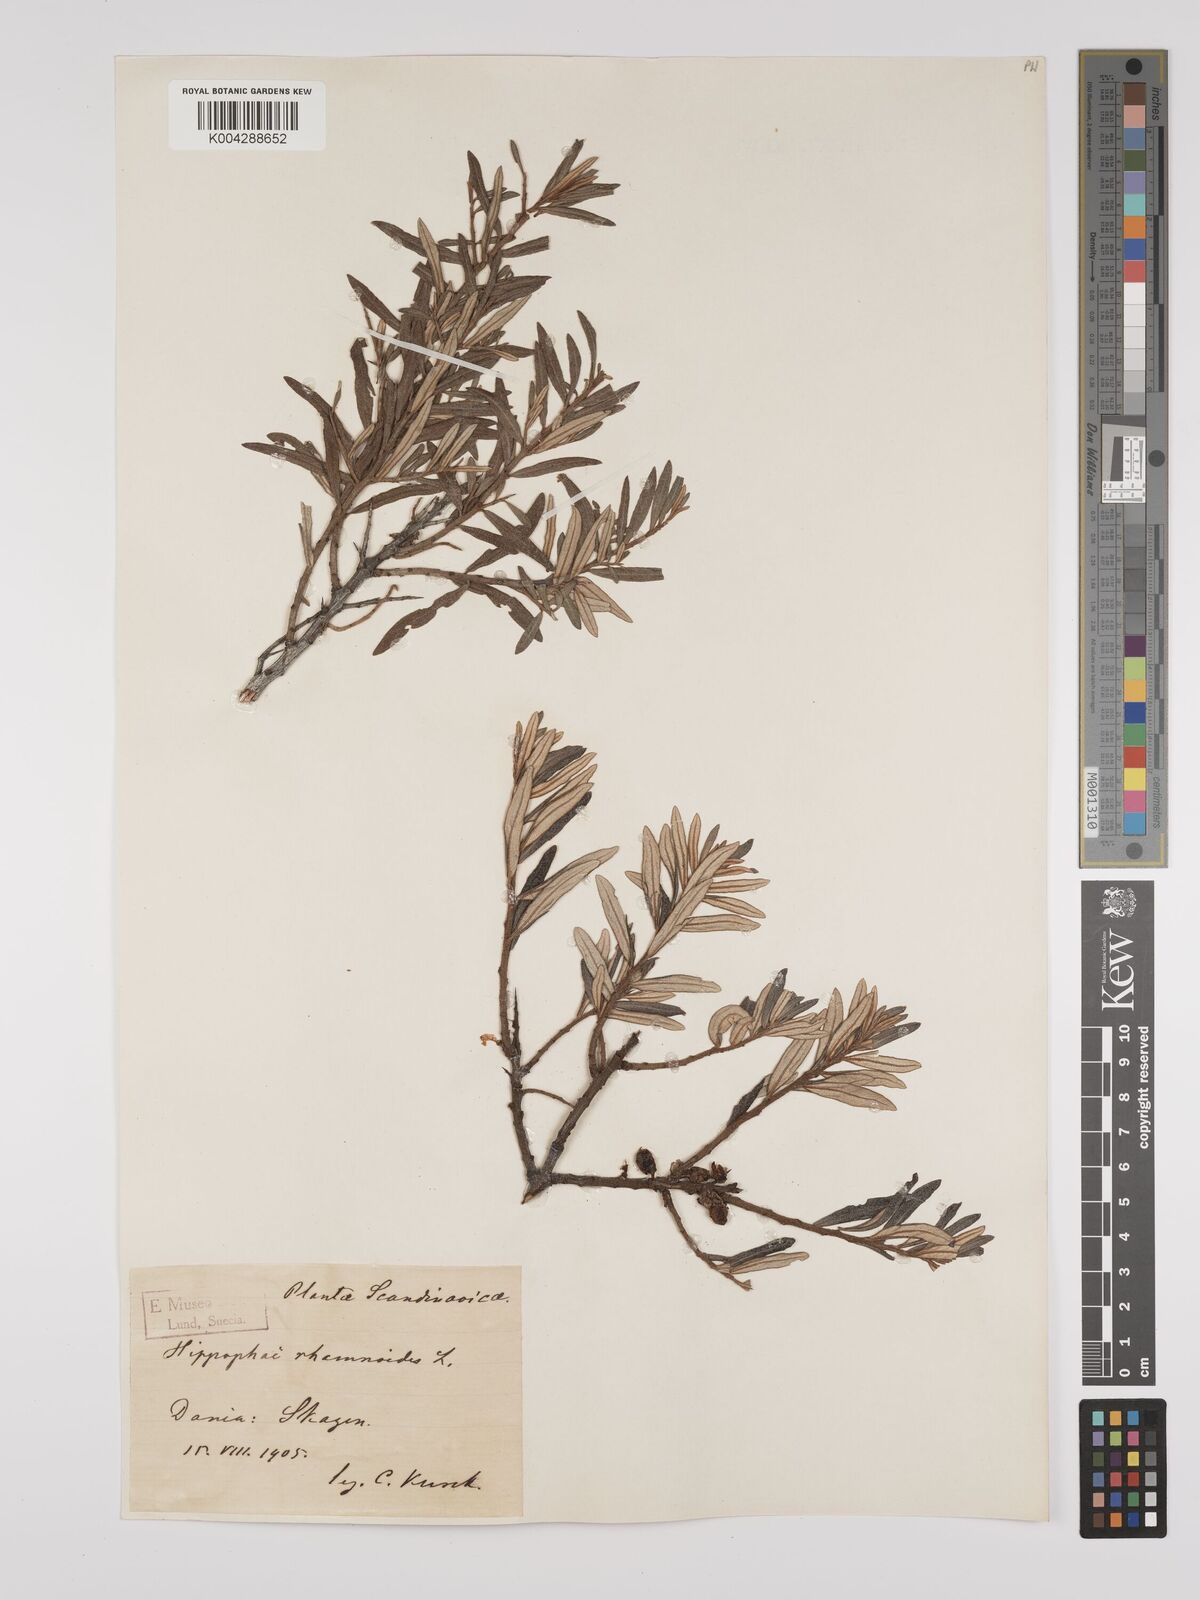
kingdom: Plantae
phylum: Tracheophyta
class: Magnoliopsida
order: Rosales
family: Elaeagnaceae
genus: Hippophae
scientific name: Hippophae rhamnoides
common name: Sea-buckthorn
